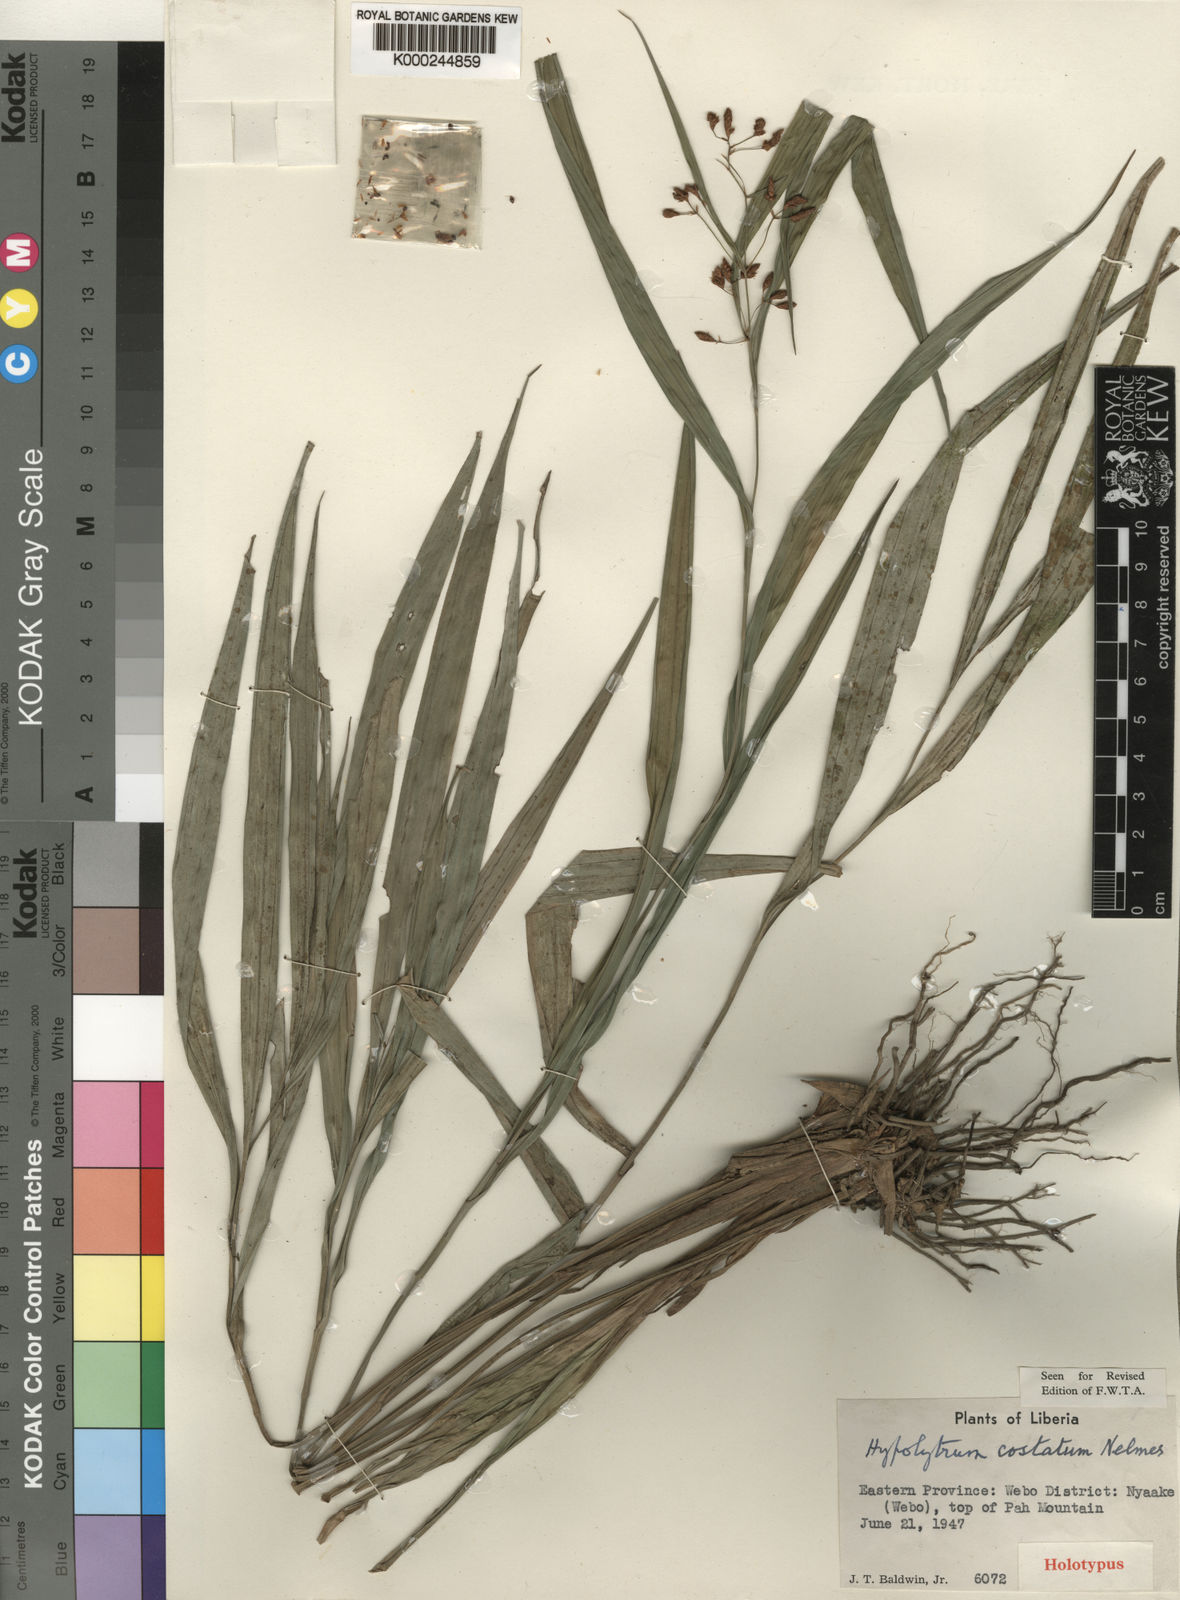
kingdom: Plantae
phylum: Tracheophyta
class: Liliopsida
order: Poales
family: Cyperaceae
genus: Hypolytrum
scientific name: Hypolytrum pahiense
